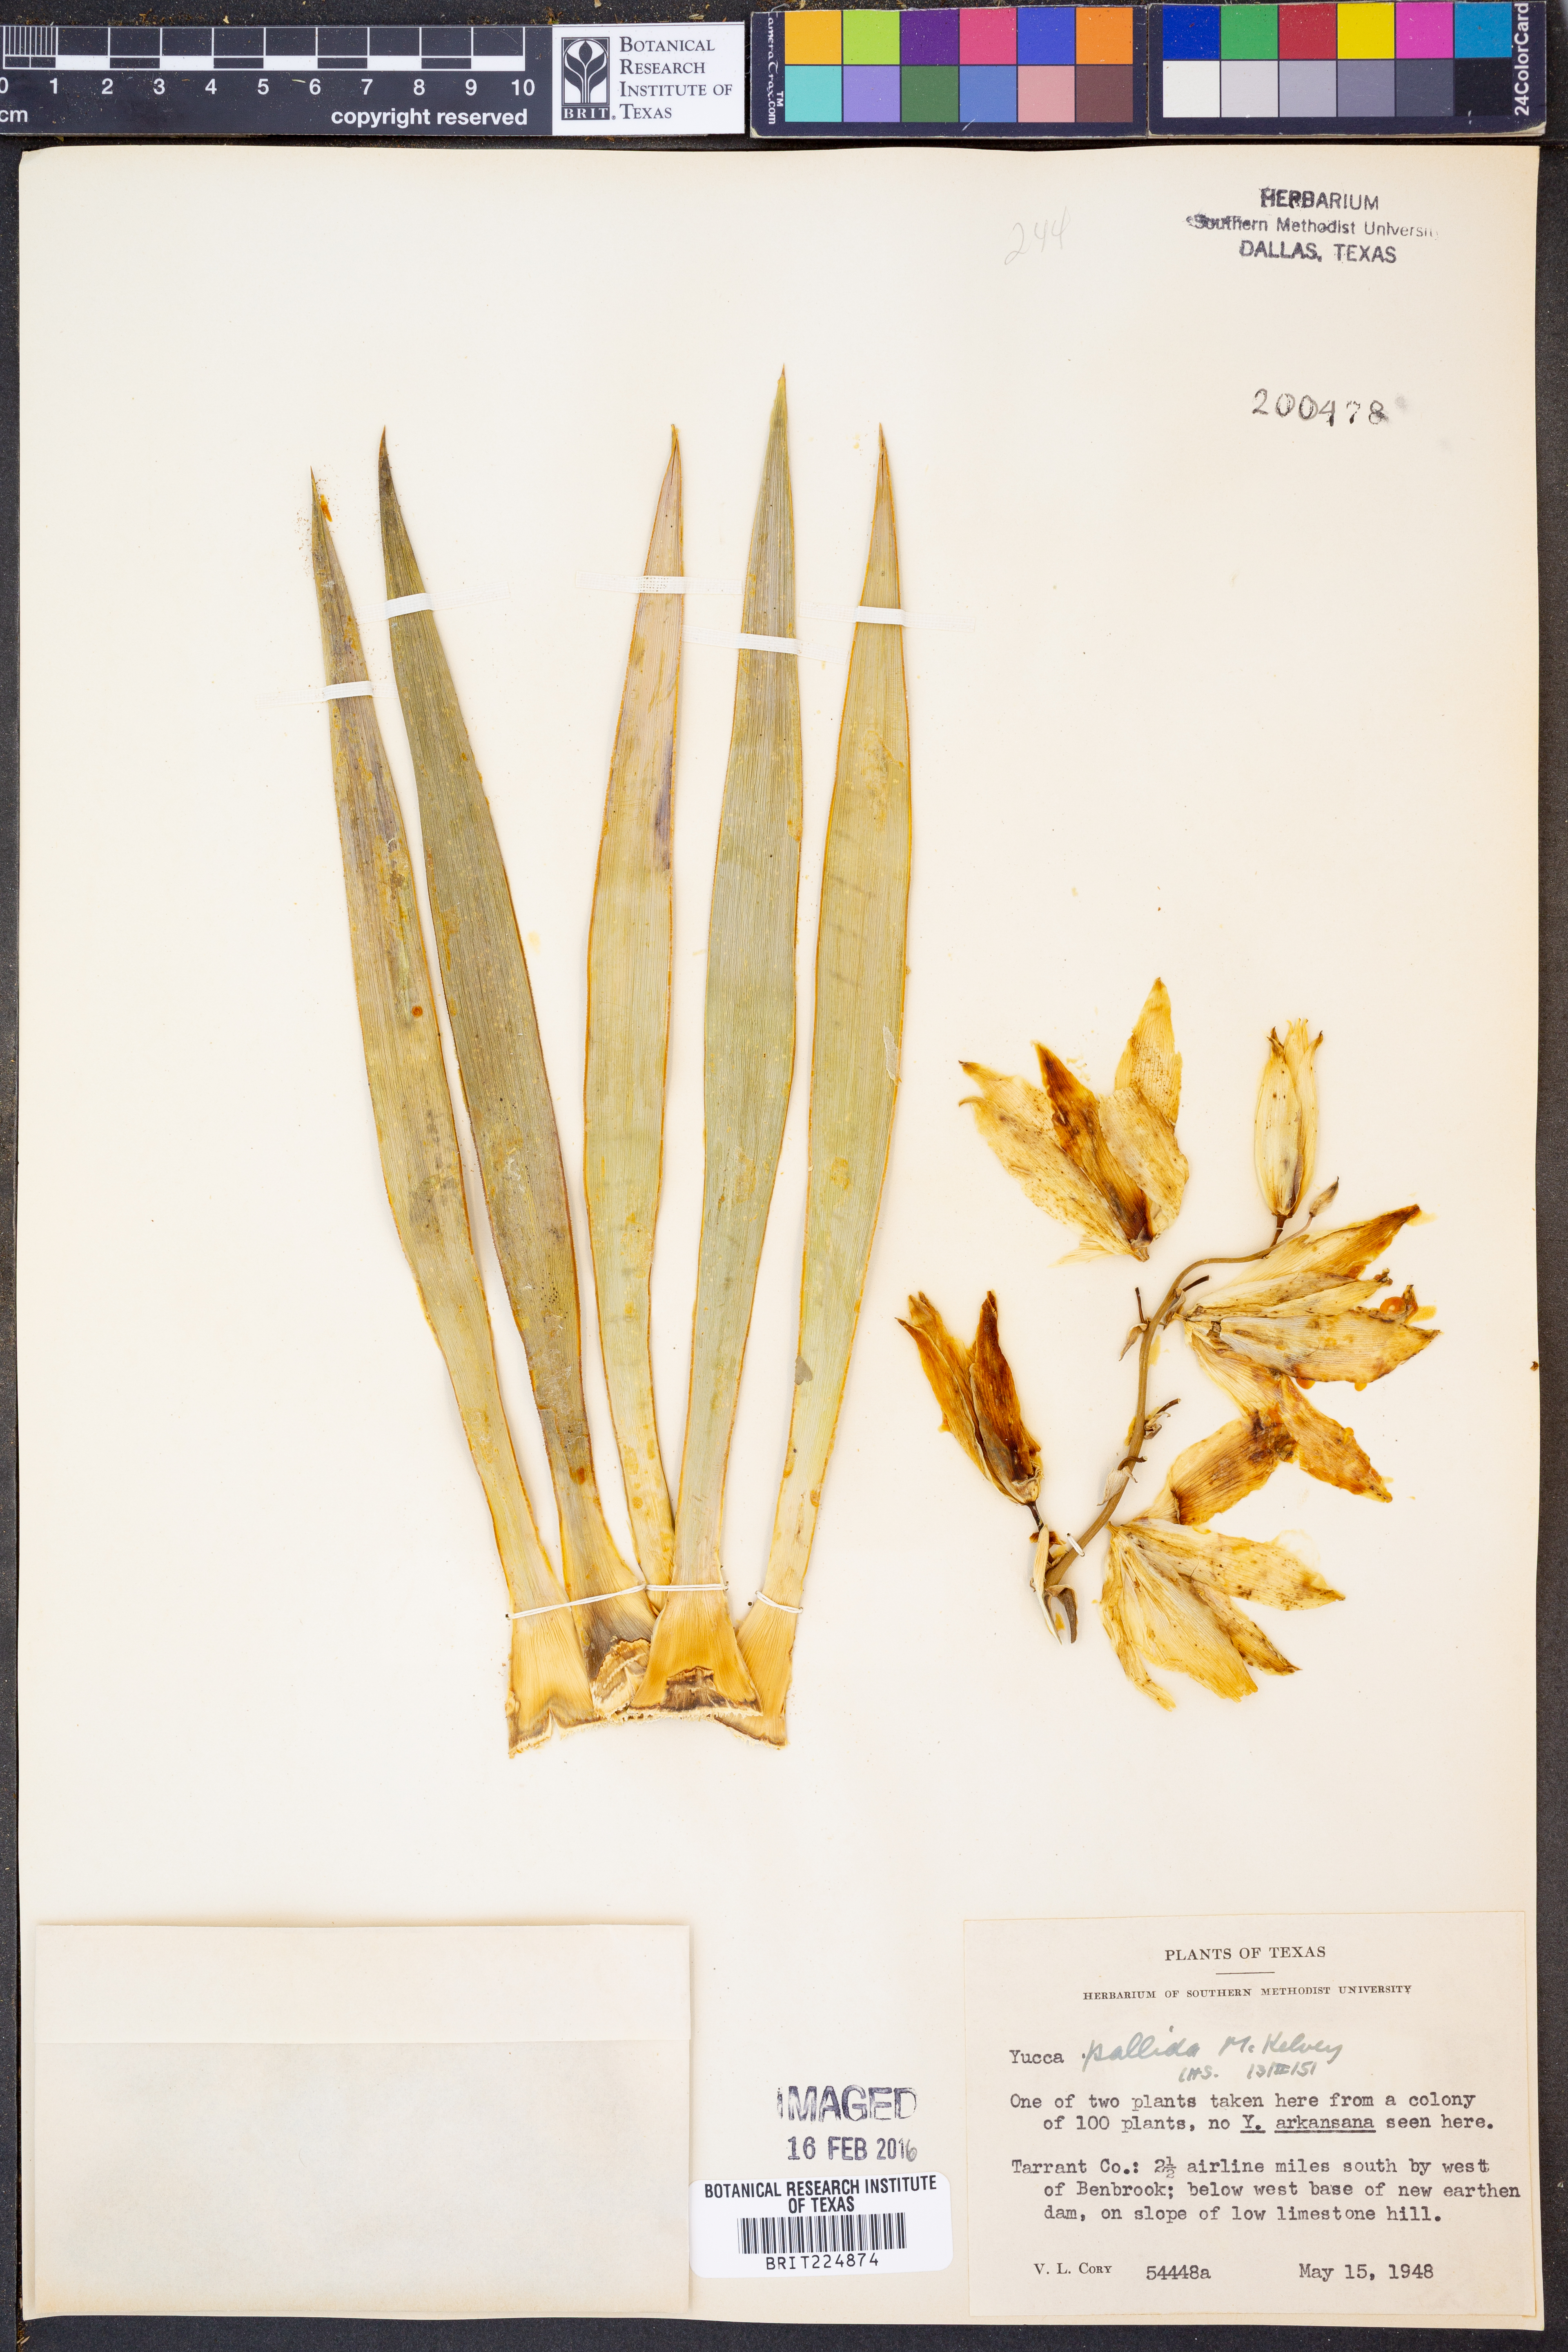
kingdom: Plantae
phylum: Tracheophyta
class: Liliopsida
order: Asparagales
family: Asparagaceae
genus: Yucca
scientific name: Yucca pallida
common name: Pale leaf yucca
